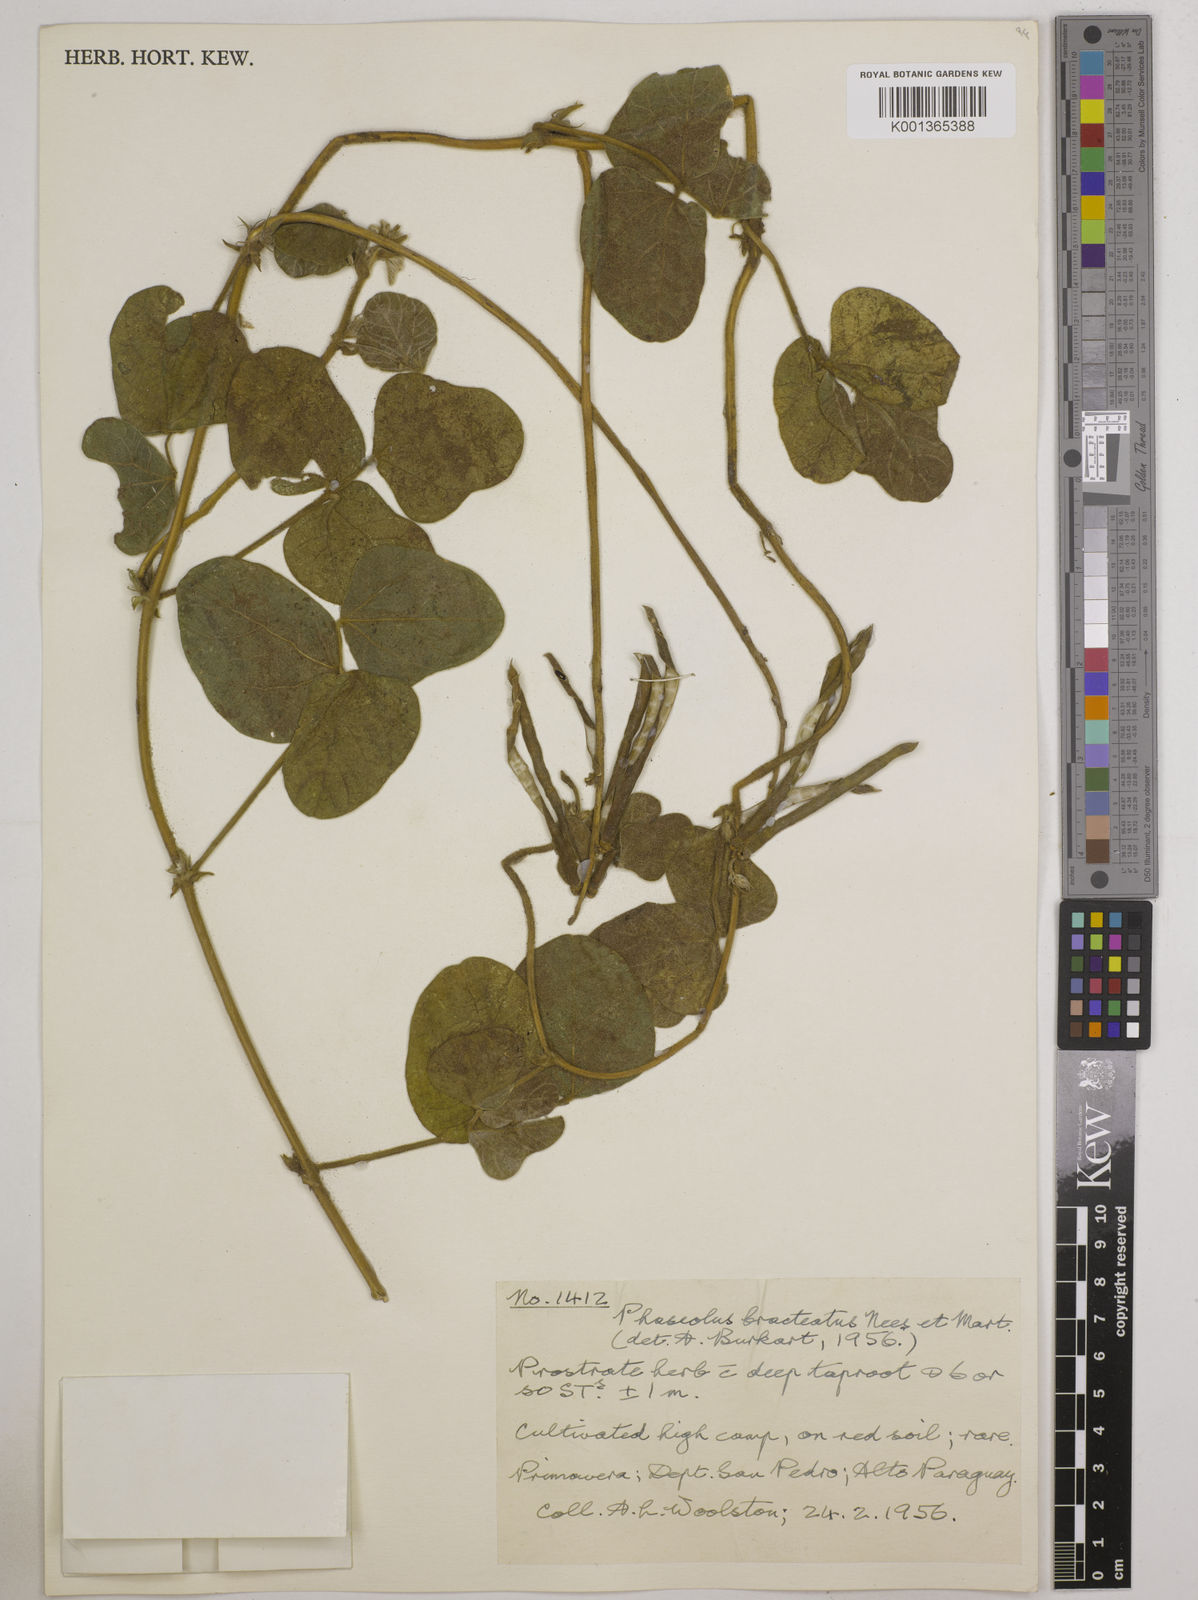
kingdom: Plantae
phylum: Tracheophyta
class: Magnoliopsida
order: Fabales
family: Fabaceae
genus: Macroptilium
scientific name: Macroptilium bracteatum
